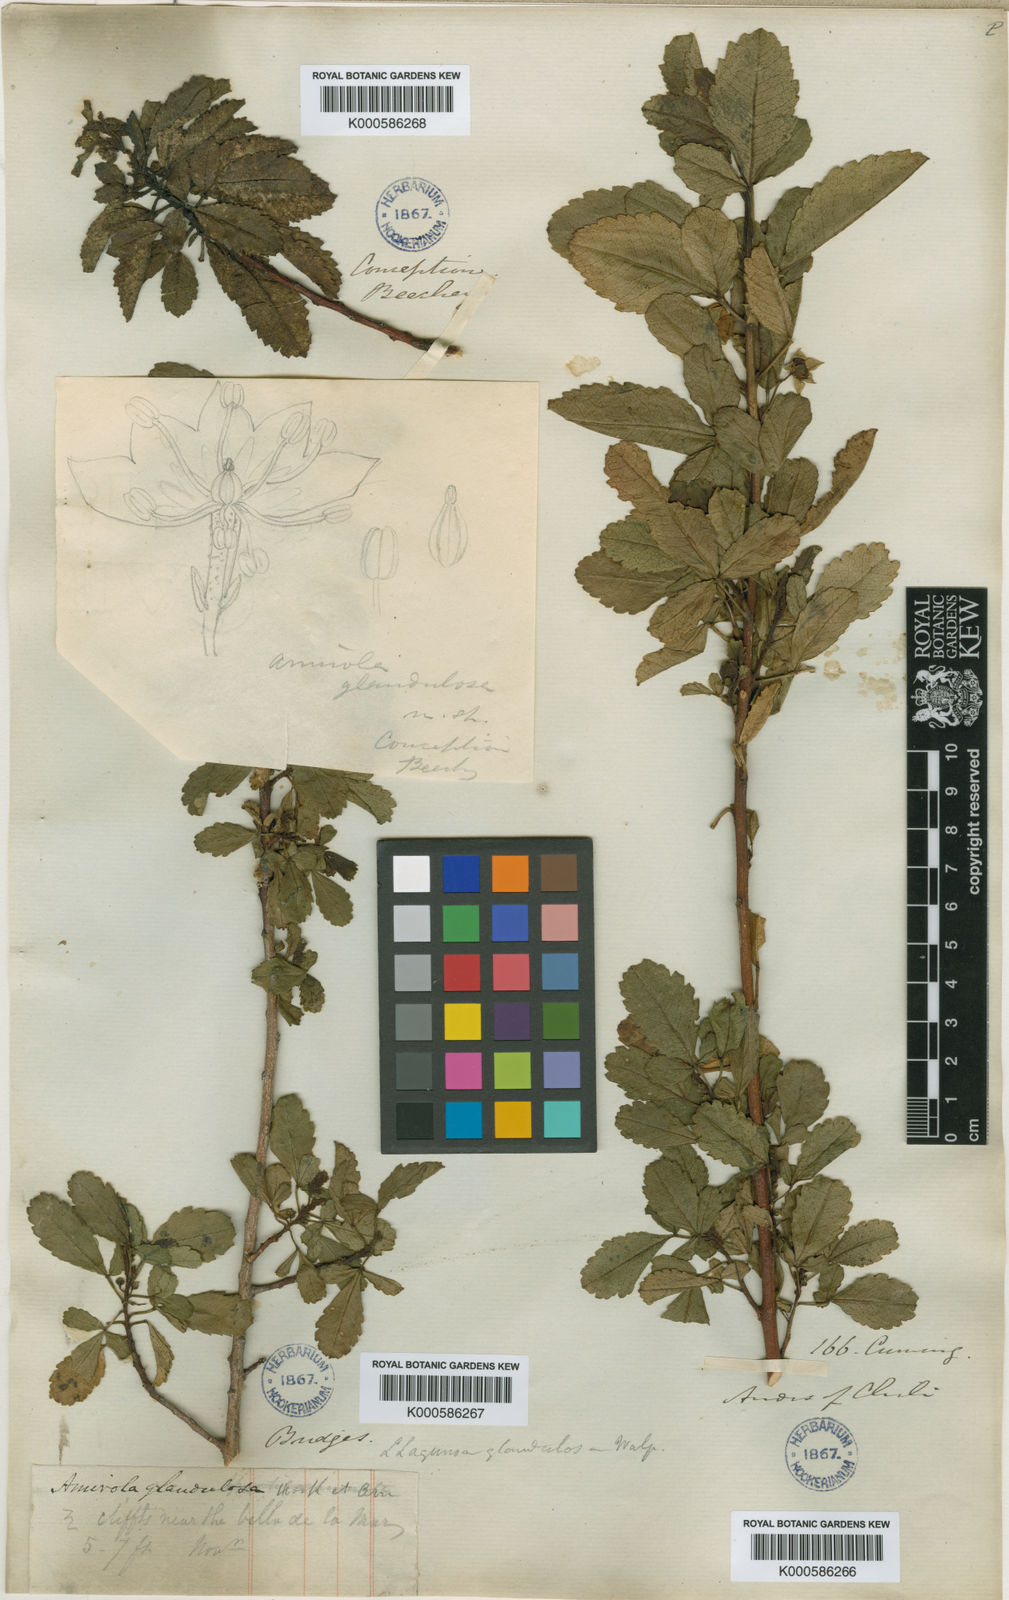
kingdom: Plantae
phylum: Tracheophyta
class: Magnoliopsida
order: Sapindales
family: Sapindaceae
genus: Llagunoa
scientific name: Llagunoa
